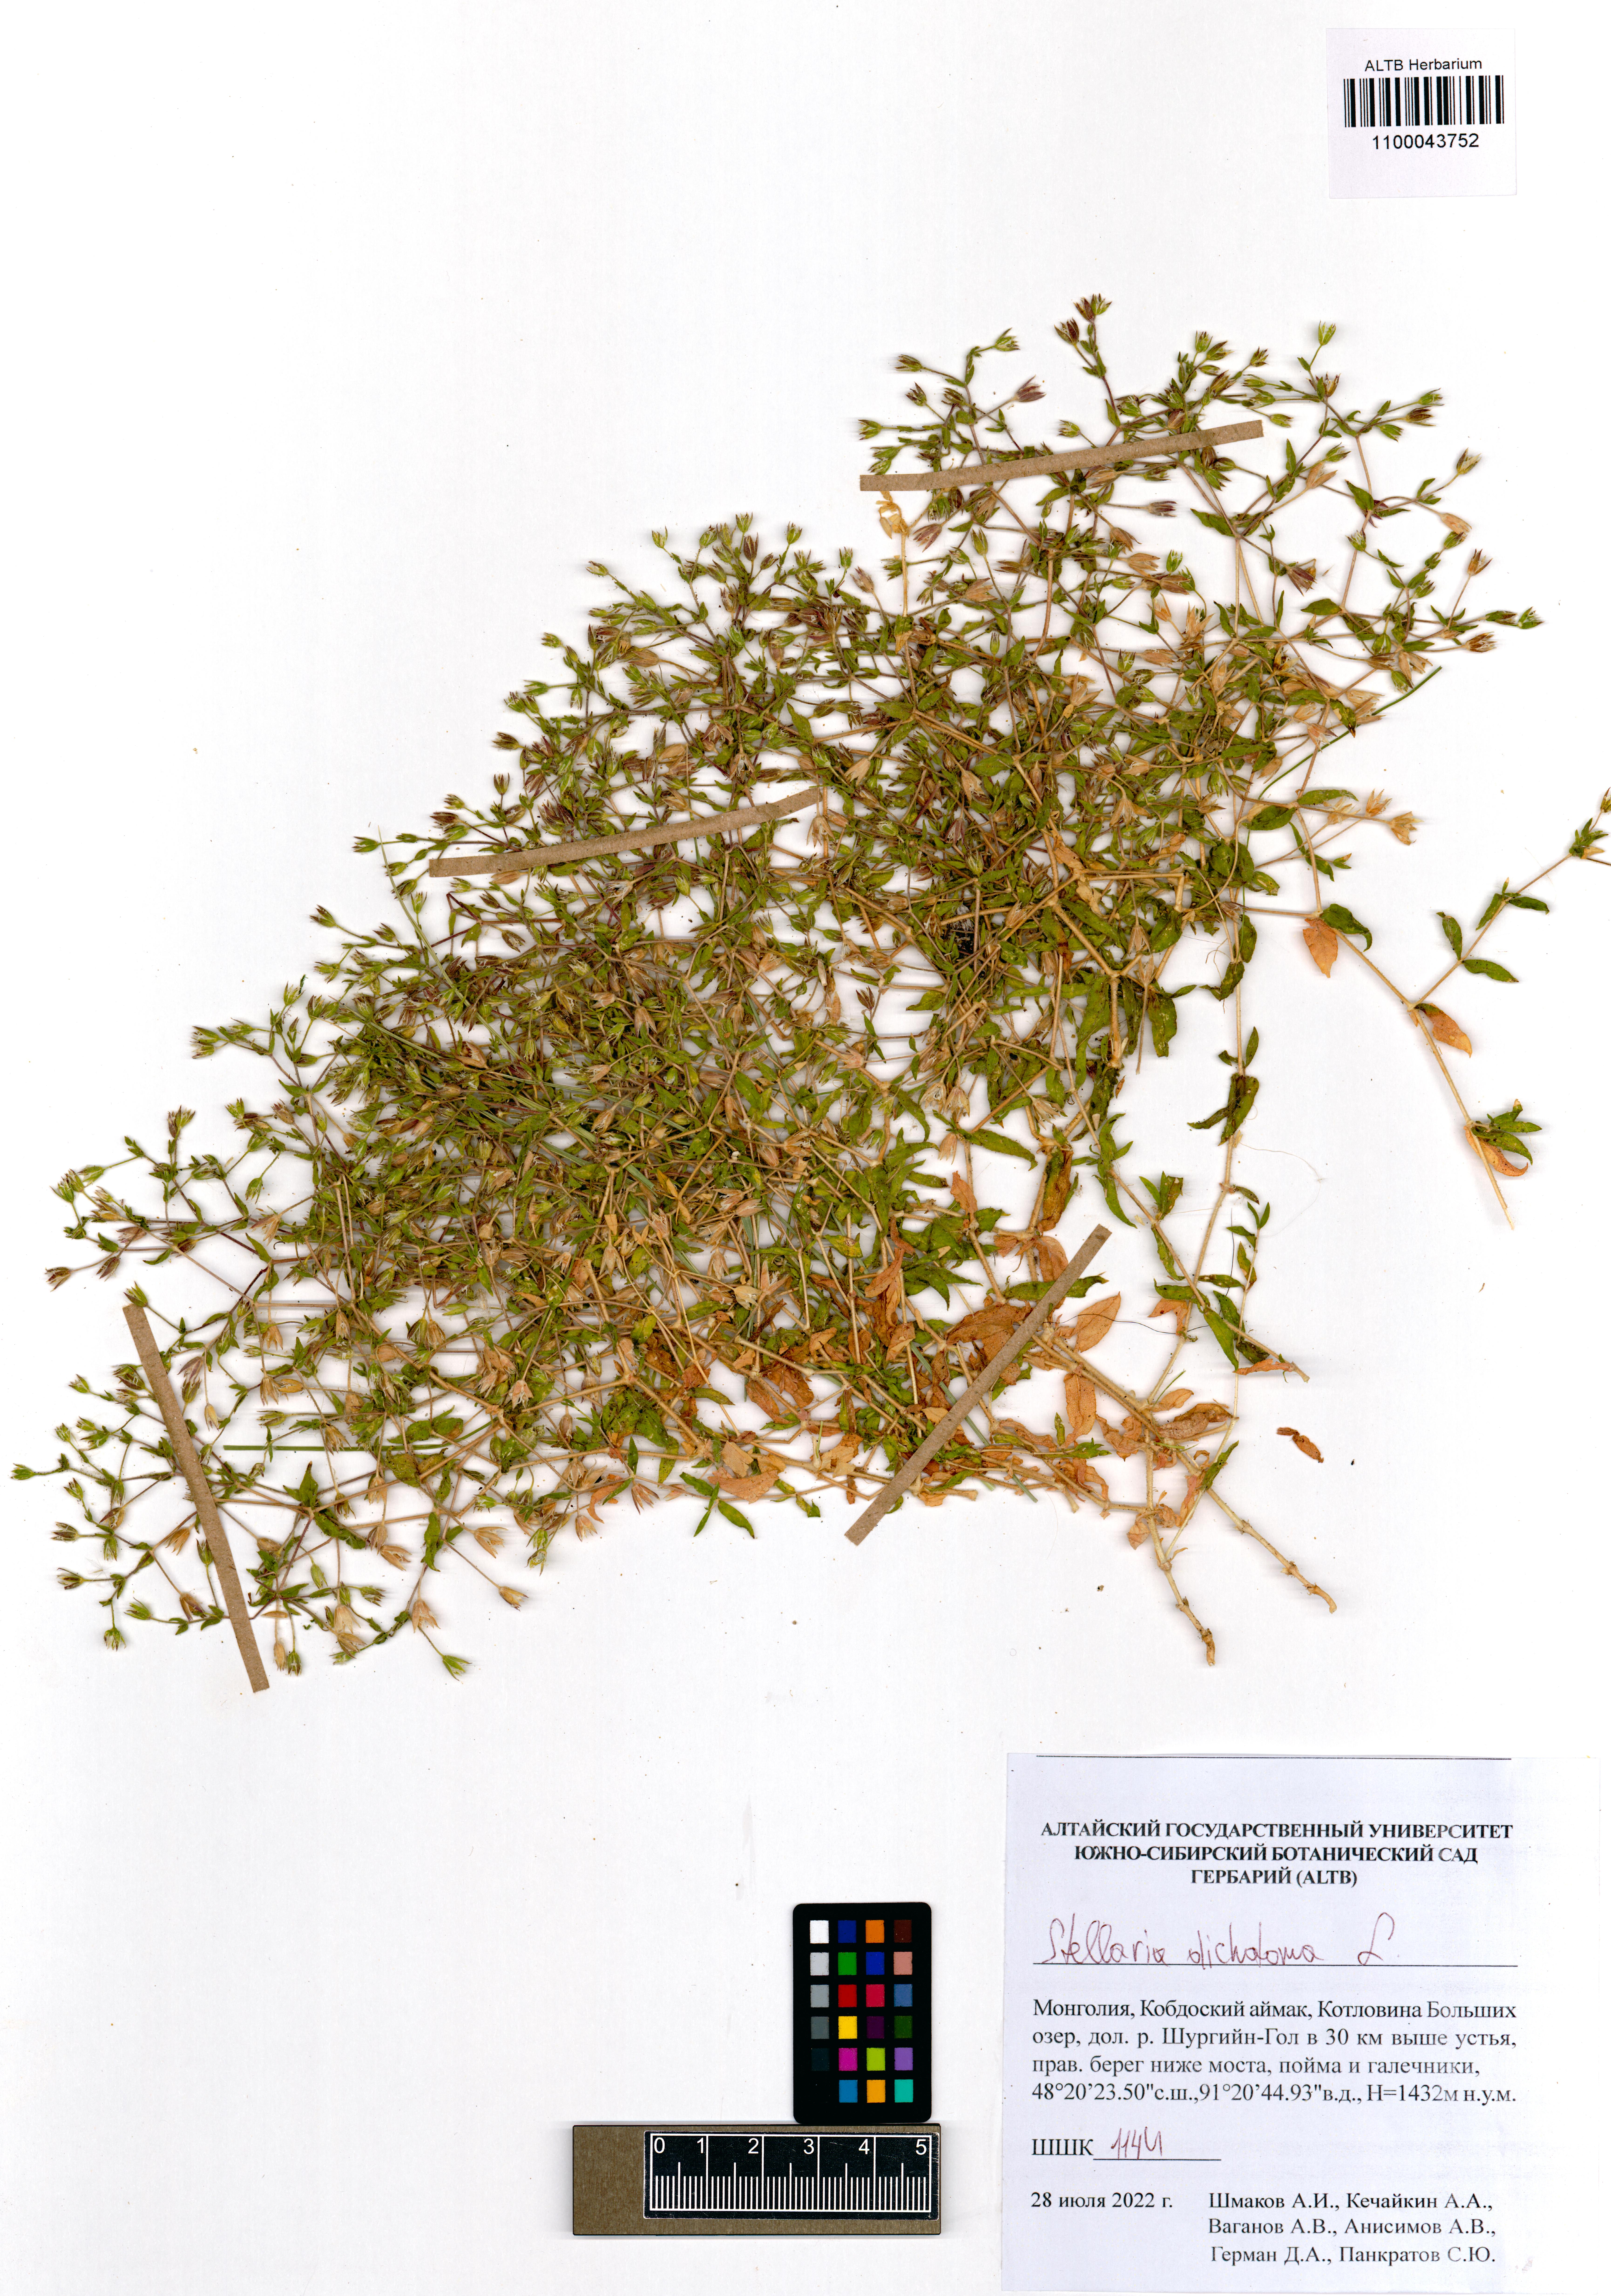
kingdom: Plantae
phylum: Tracheophyta
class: Magnoliopsida
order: Caryophyllales
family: Caryophyllaceae
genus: Mesostemma
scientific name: Mesostemma dichotomum
